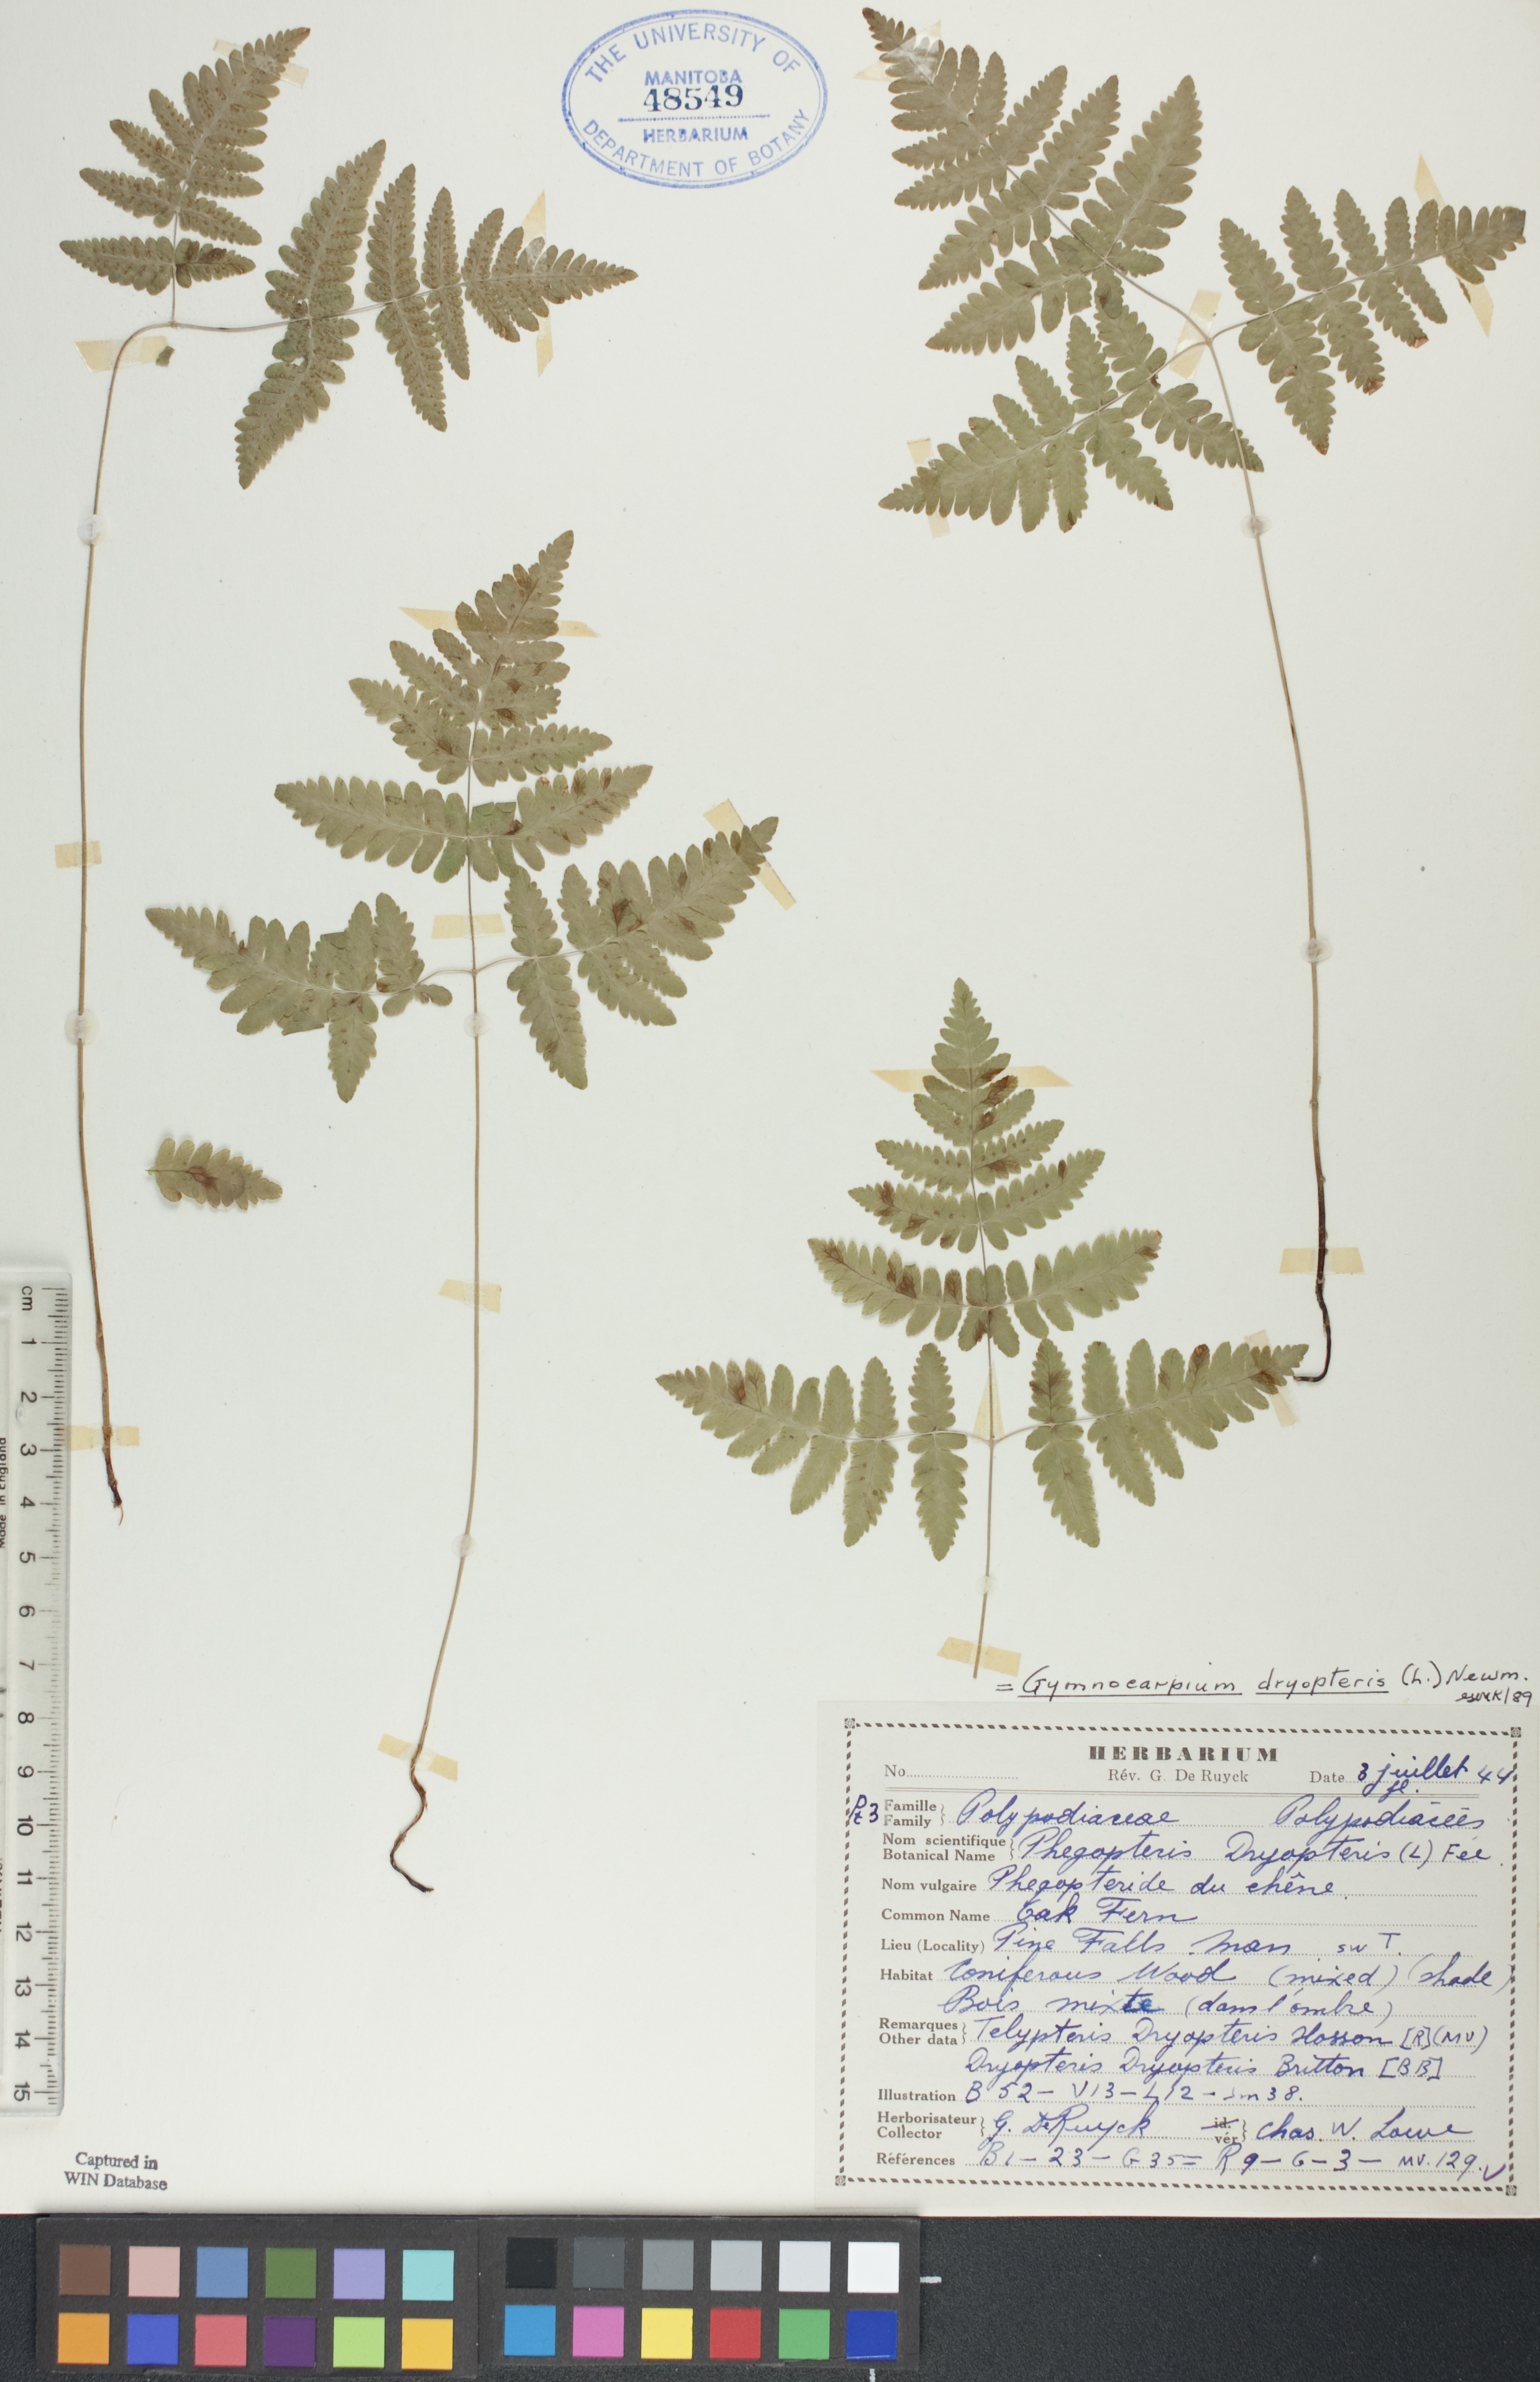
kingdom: Plantae
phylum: Tracheophyta
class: Polypodiopsida
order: Polypodiales
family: Cystopteridaceae
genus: Gymnocarpium
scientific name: Gymnocarpium dryopteris
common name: Oak fern
